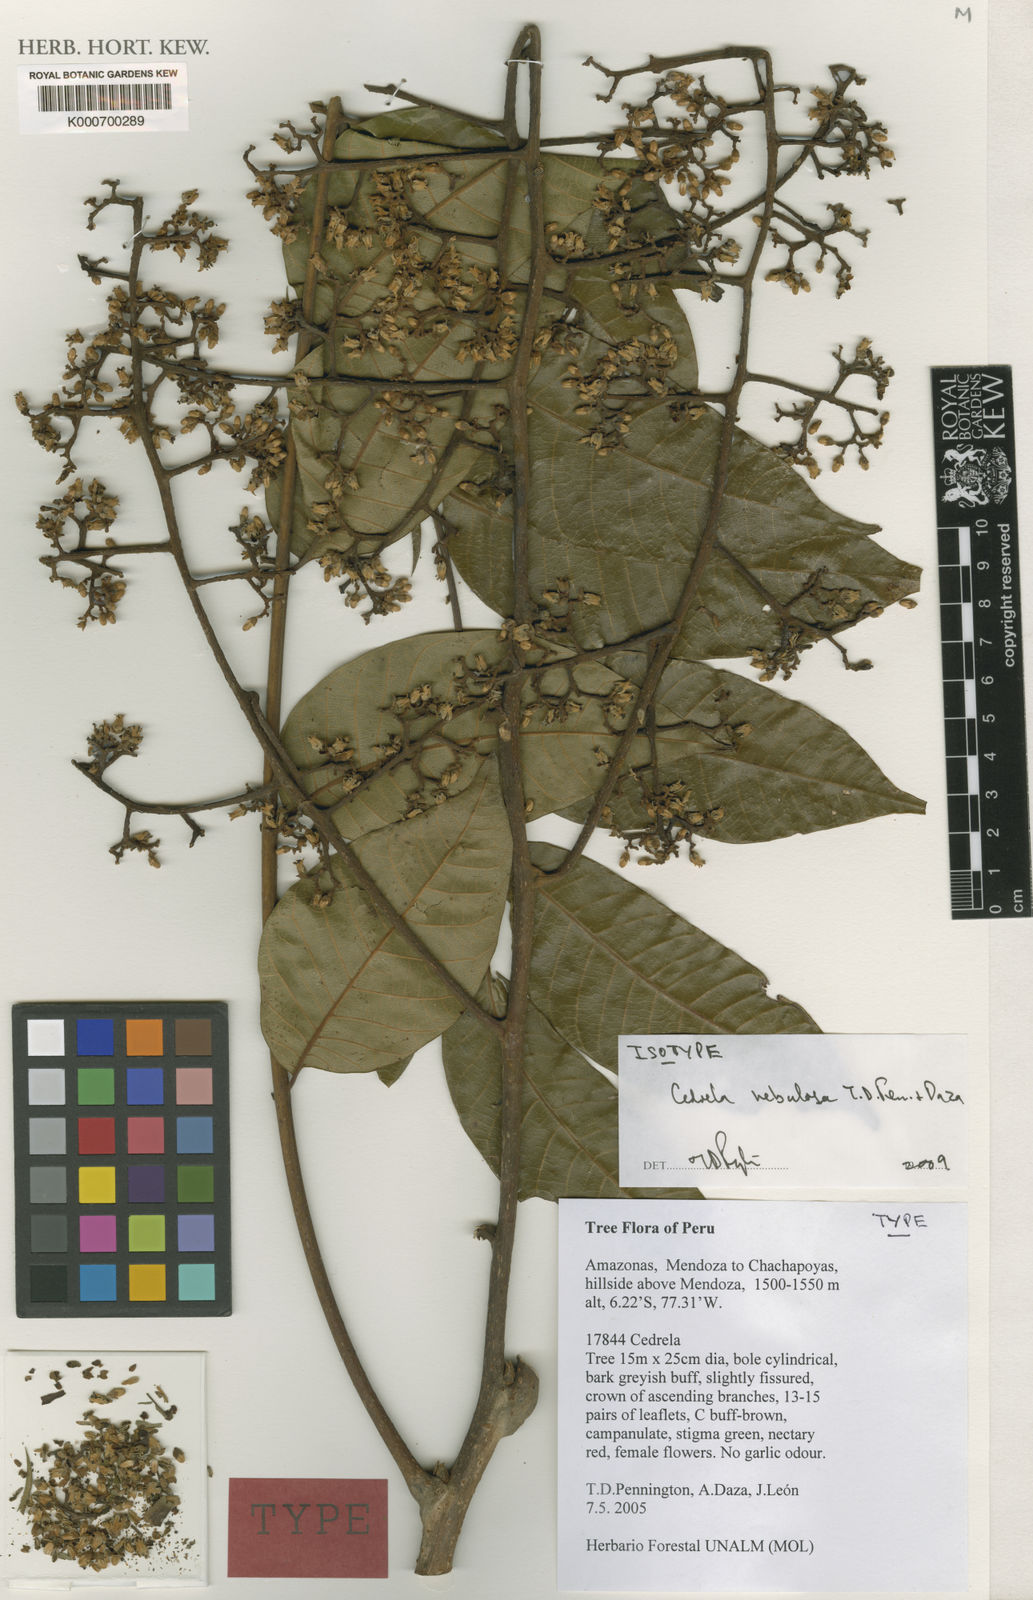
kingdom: Plantae
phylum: Tracheophyta
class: Magnoliopsida
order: Sapindales
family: Meliaceae
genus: Cedrela
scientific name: Cedrela nebulosa
